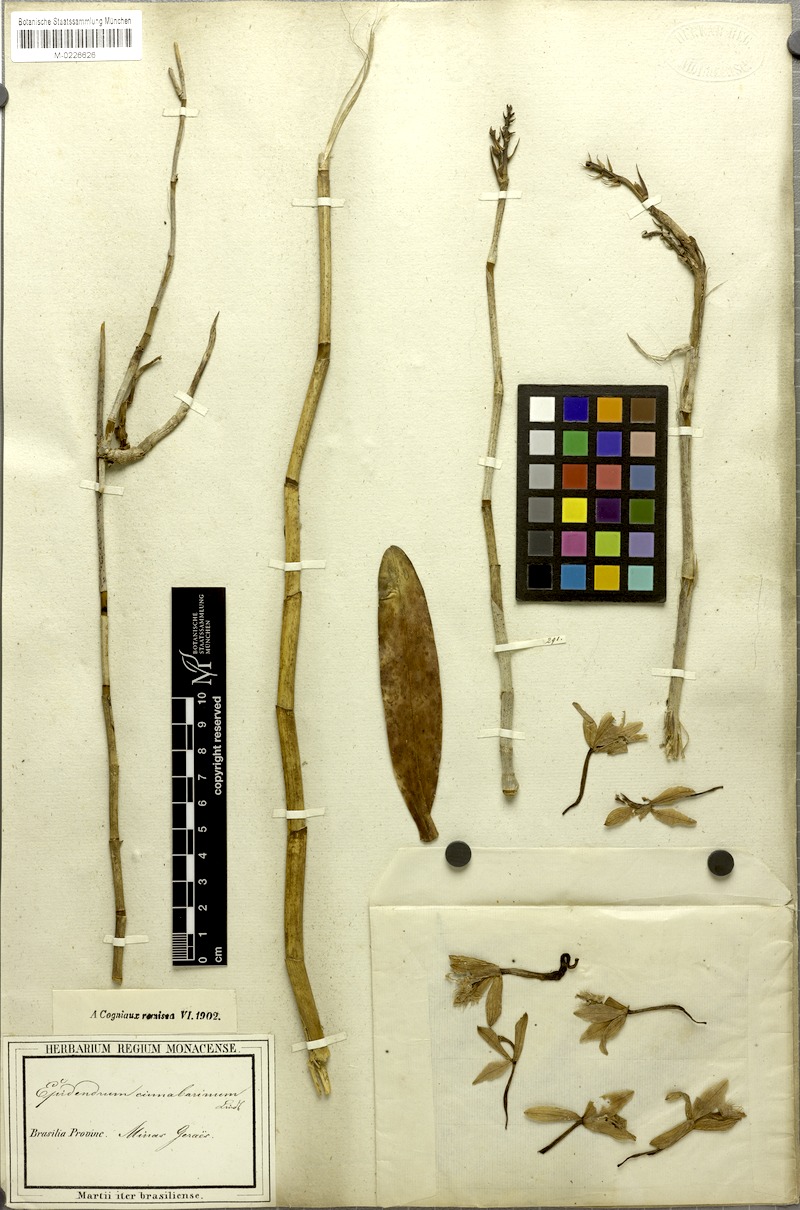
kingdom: Plantae
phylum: Tracheophyta
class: Liliopsida
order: Asparagales
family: Orchidaceae
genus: Epidendrum
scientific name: Epidendrum cinnabarinum
